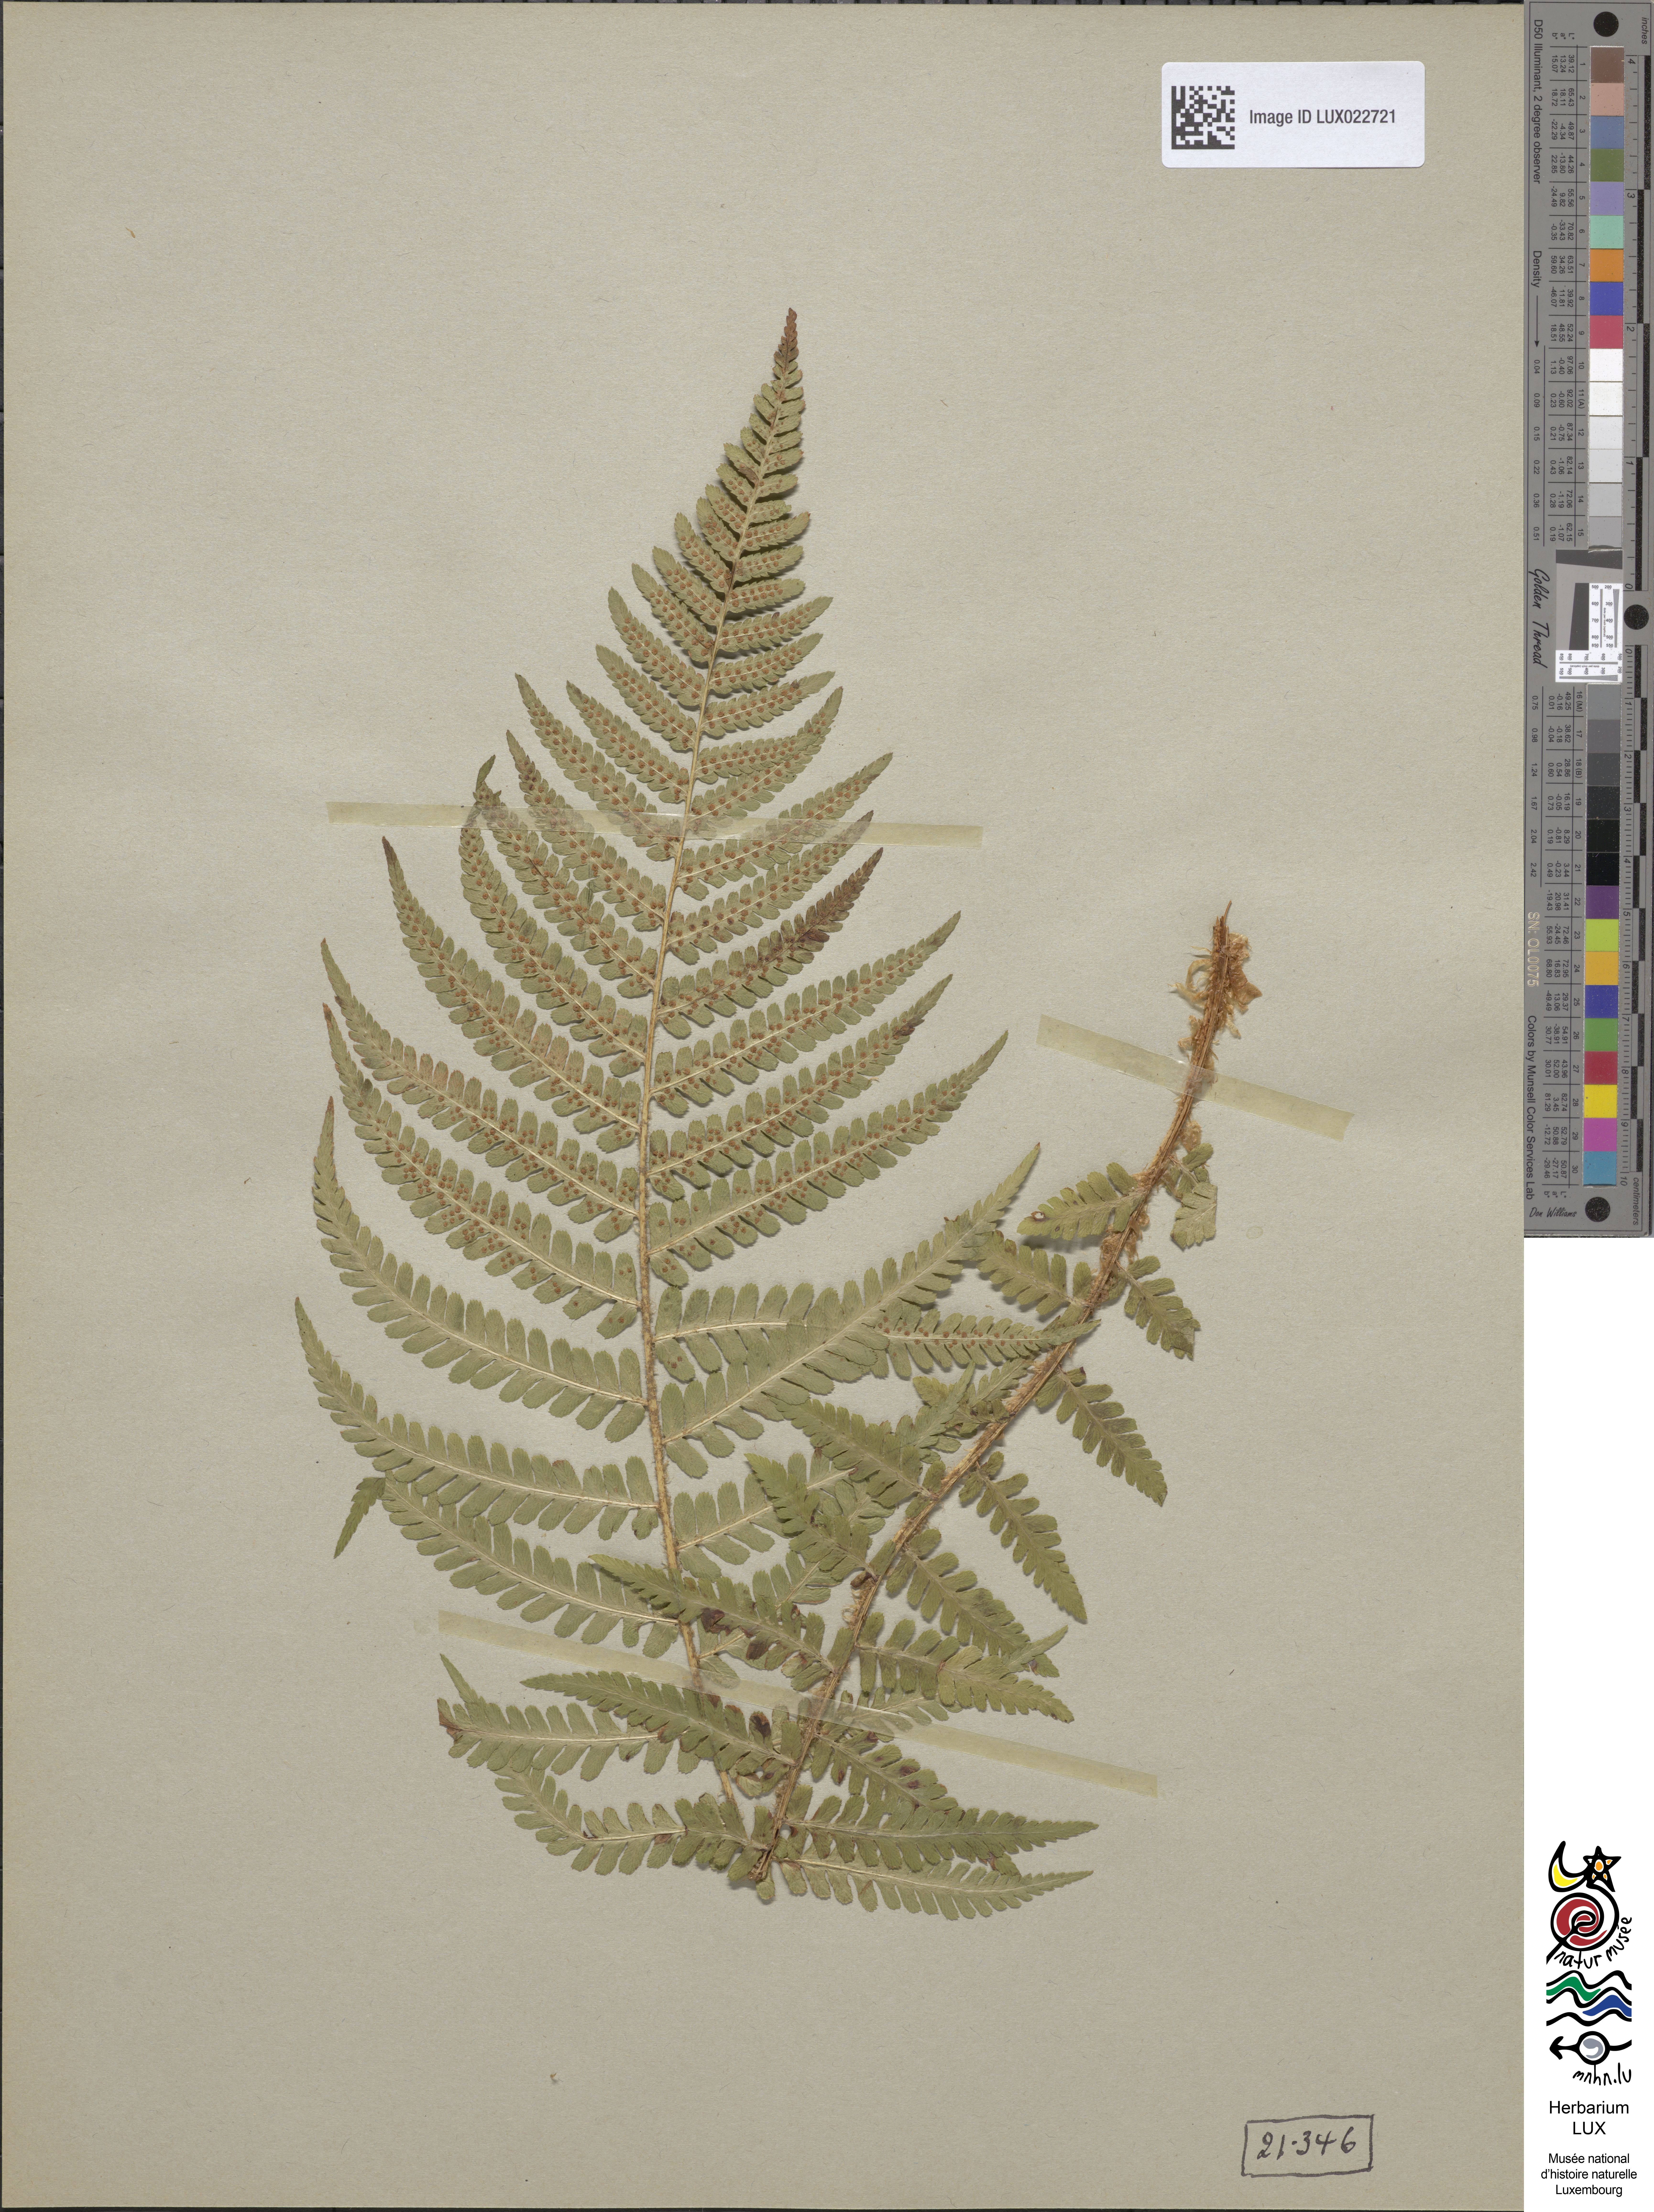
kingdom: Plantae
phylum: Tracheophyta
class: Polypodiopsida
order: Polypodiales
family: Dryopteridaceae
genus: Dryopteris
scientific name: Dryopteris filix-mas
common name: Male fern
